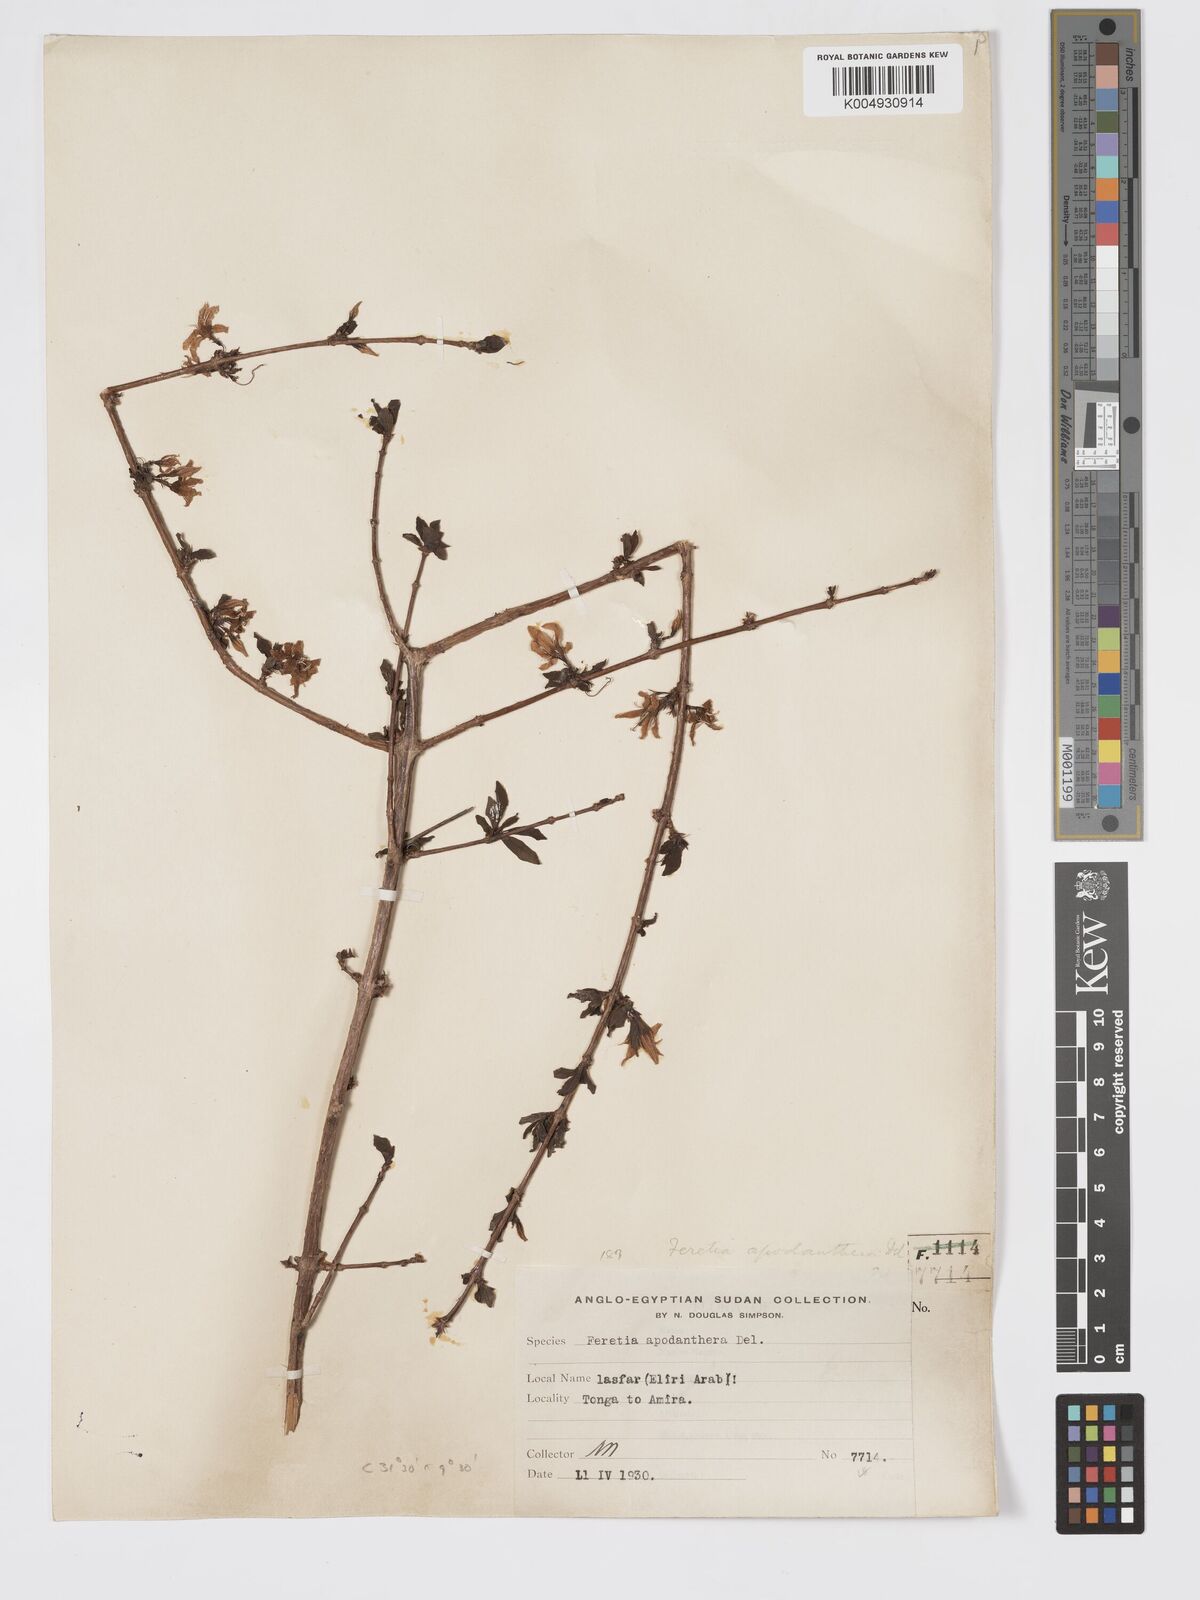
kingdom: Plantae
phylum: Tracheophyta
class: Magnoliopsida
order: Gentianales
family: Rubiaceae
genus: Feretia
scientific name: Feretia apodanthera
